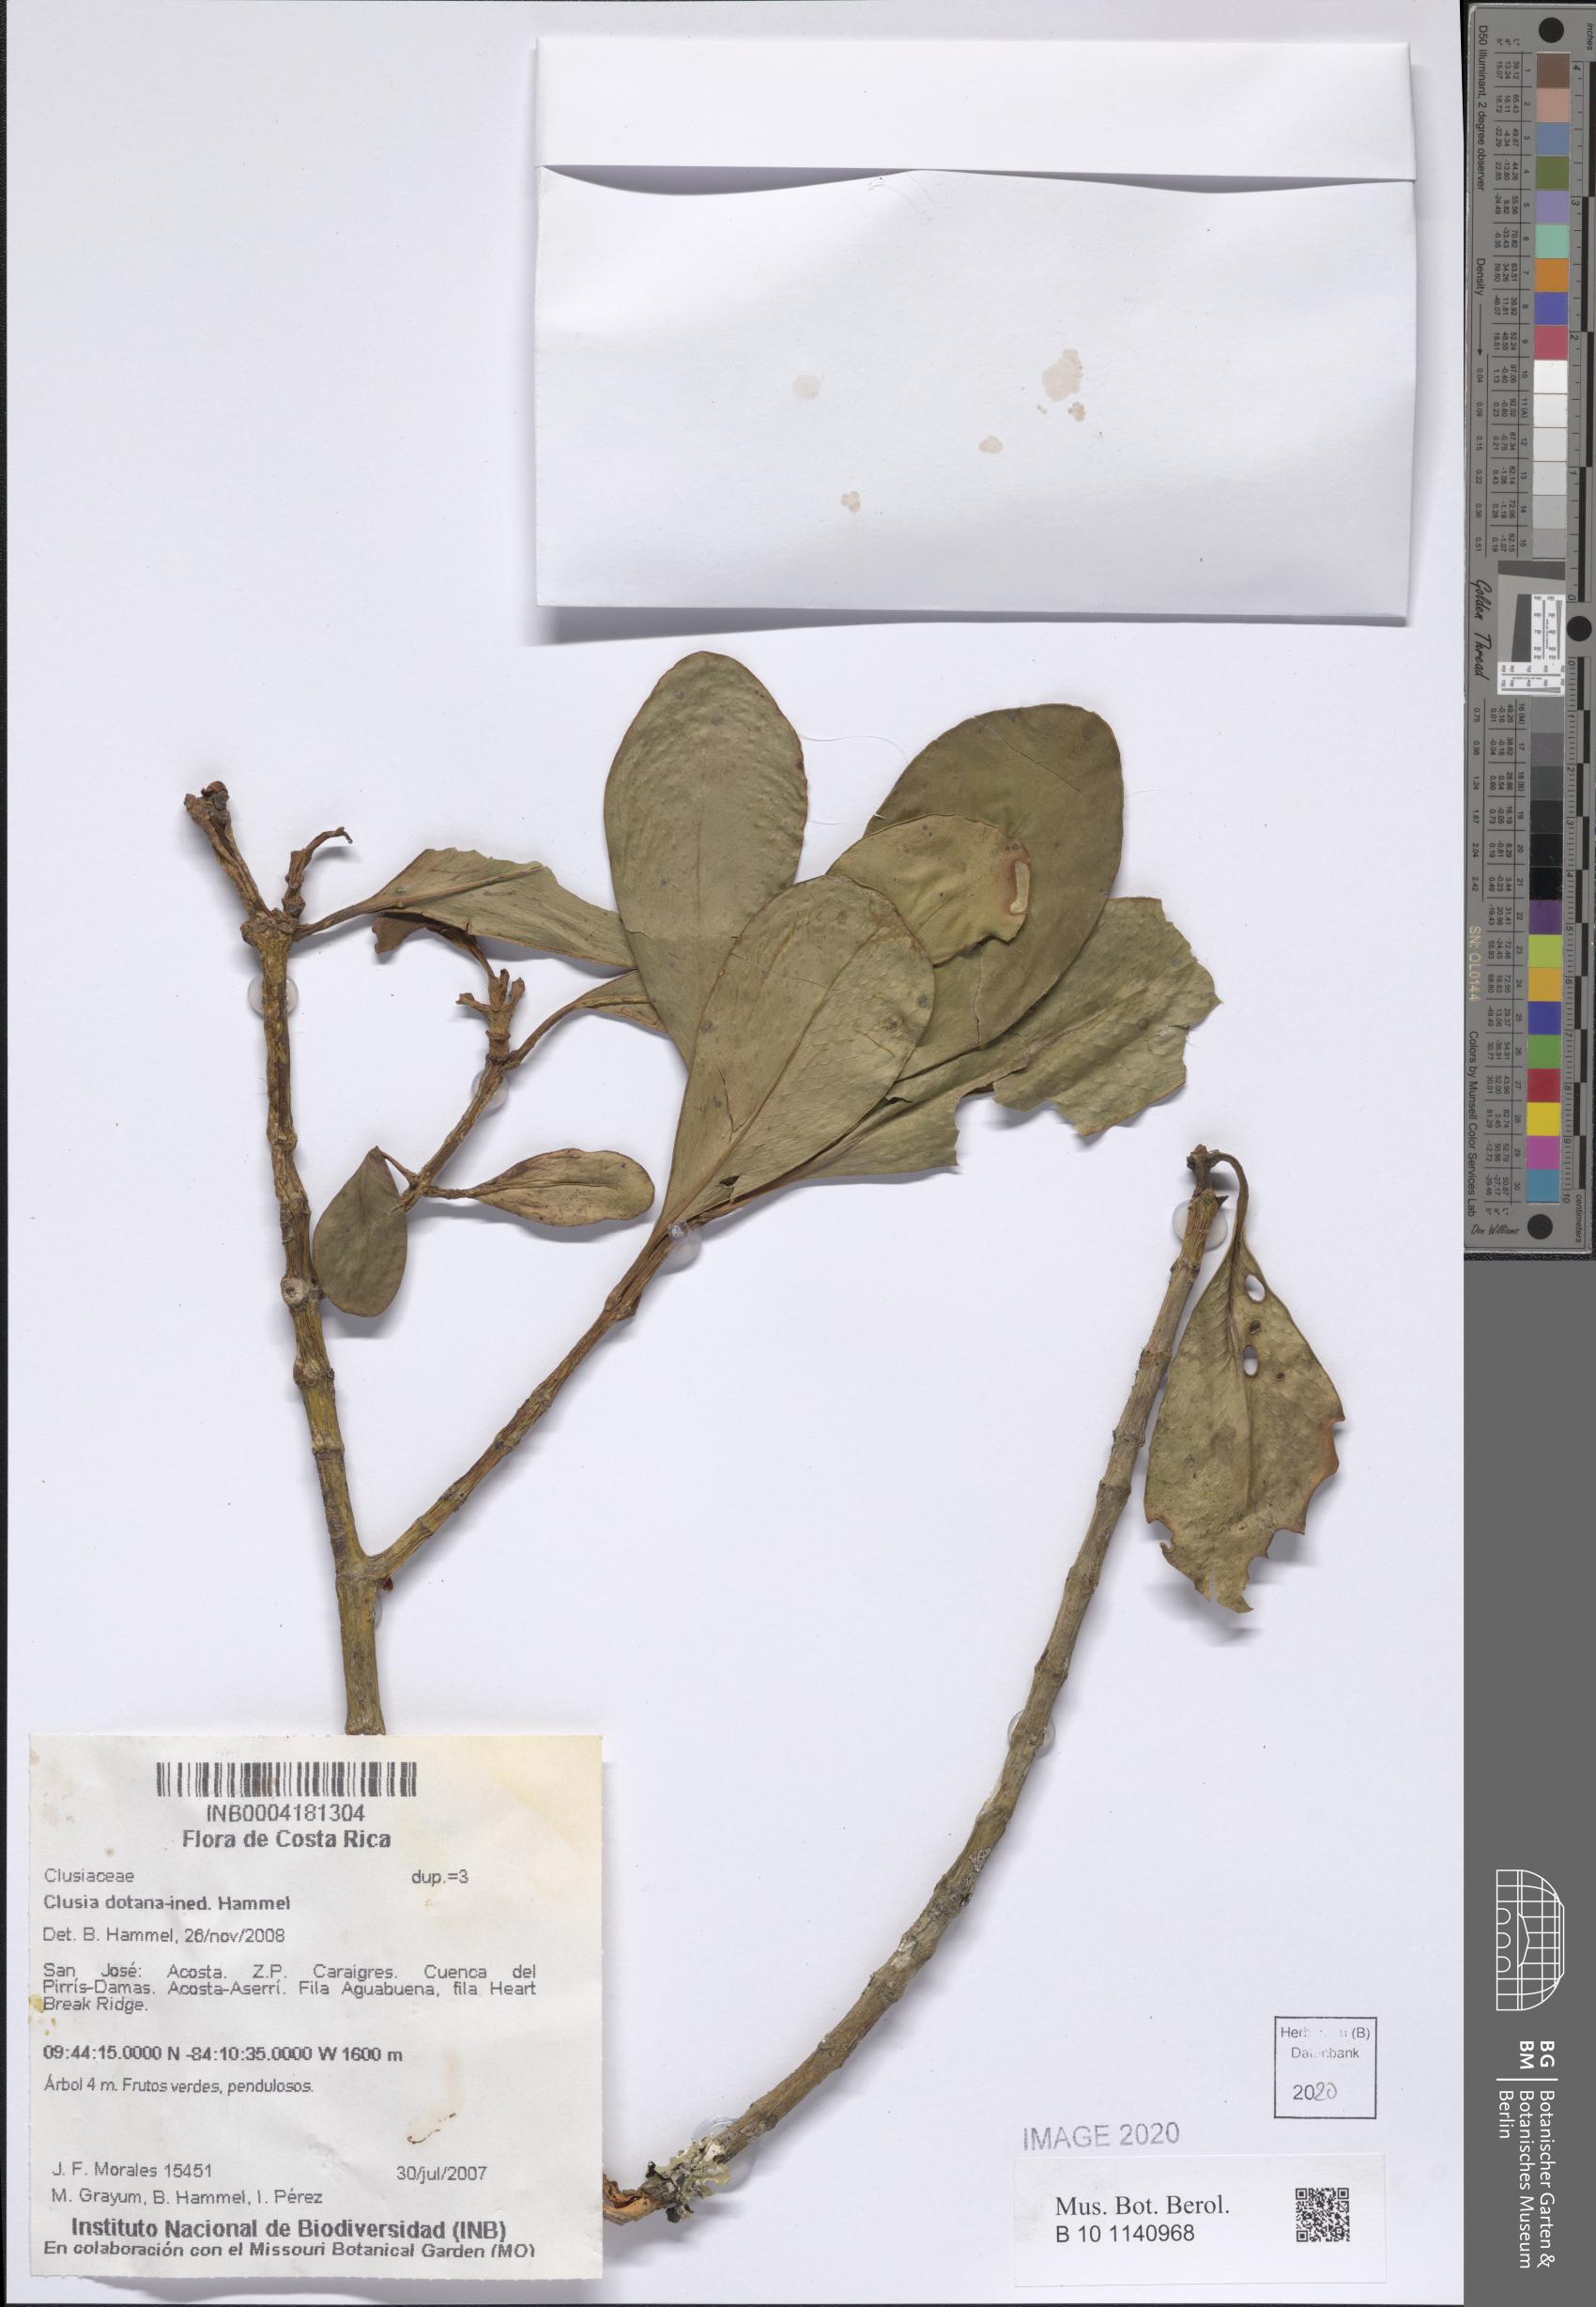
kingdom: Plantae
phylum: Tracheophyta
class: Magnoliopsida
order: Malpighiales
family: Clusiaceae
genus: Clusia
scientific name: Clusia
